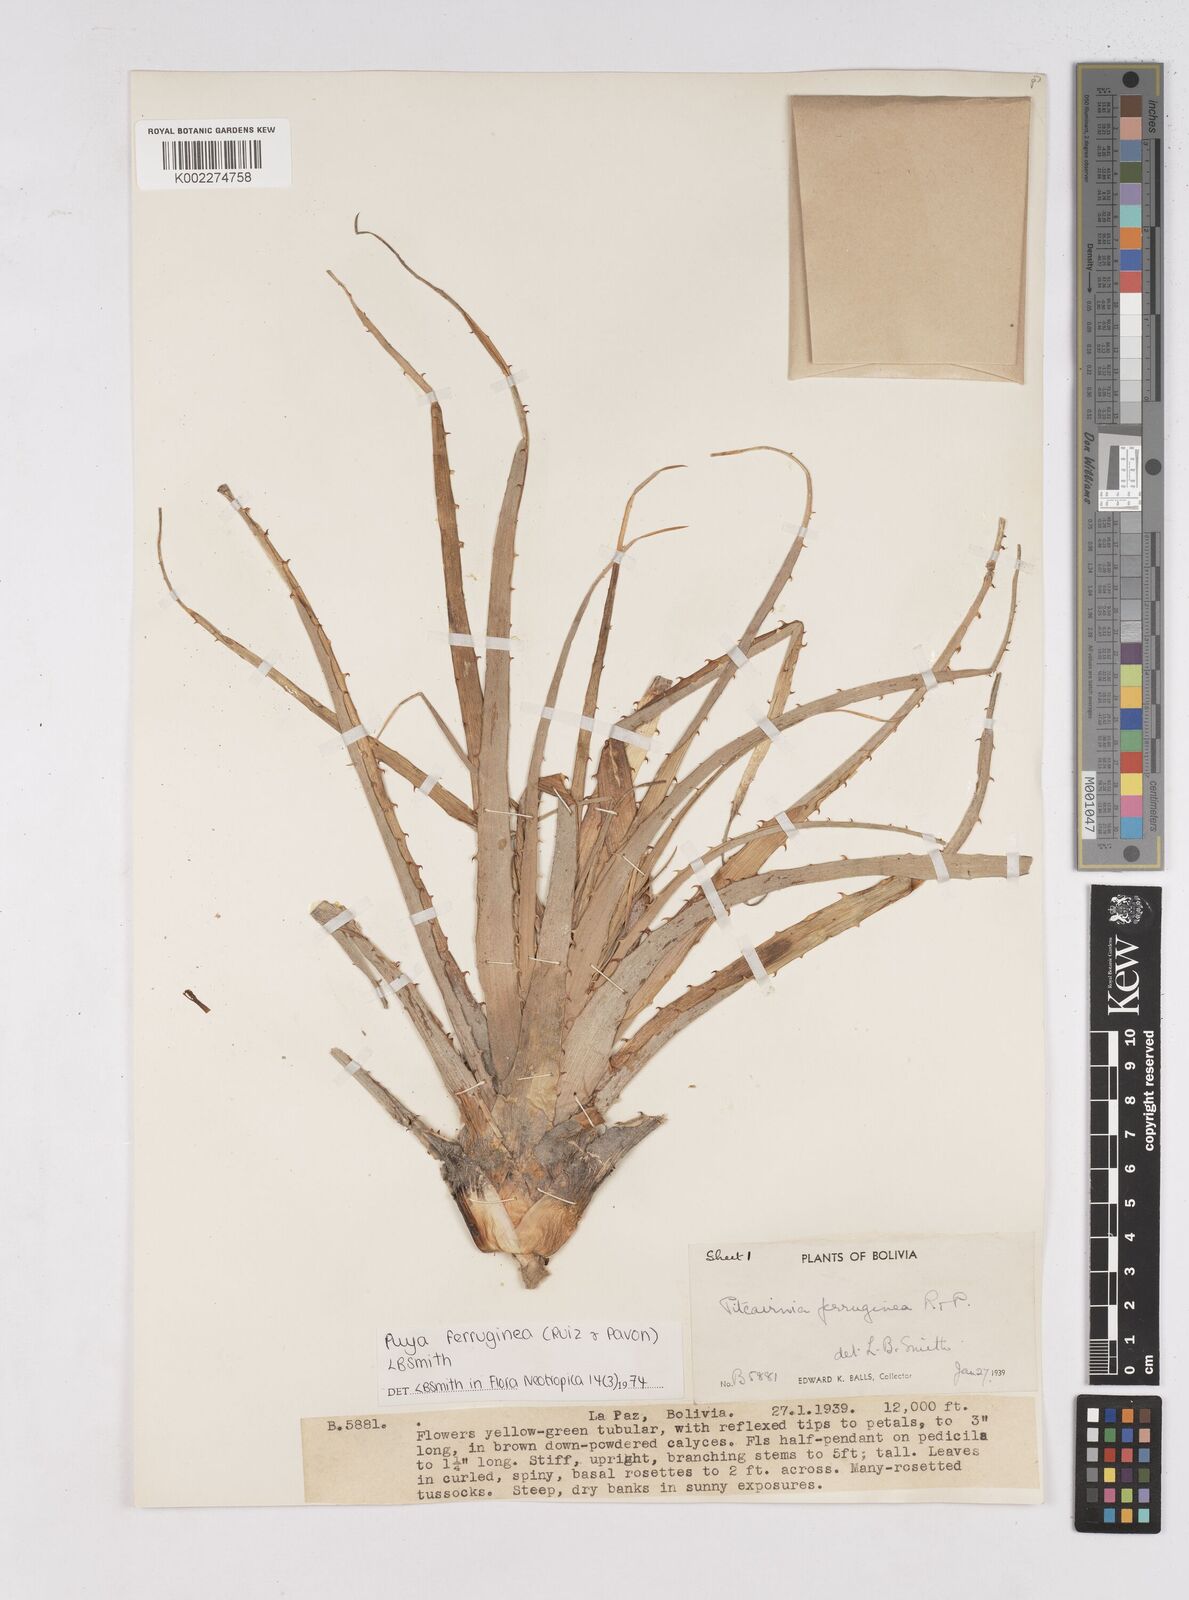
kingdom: Plantae
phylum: Tracheophyta
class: Liliopsida
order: Poales
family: Bromeliaceae
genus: Puya
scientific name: Puya ferruginea
